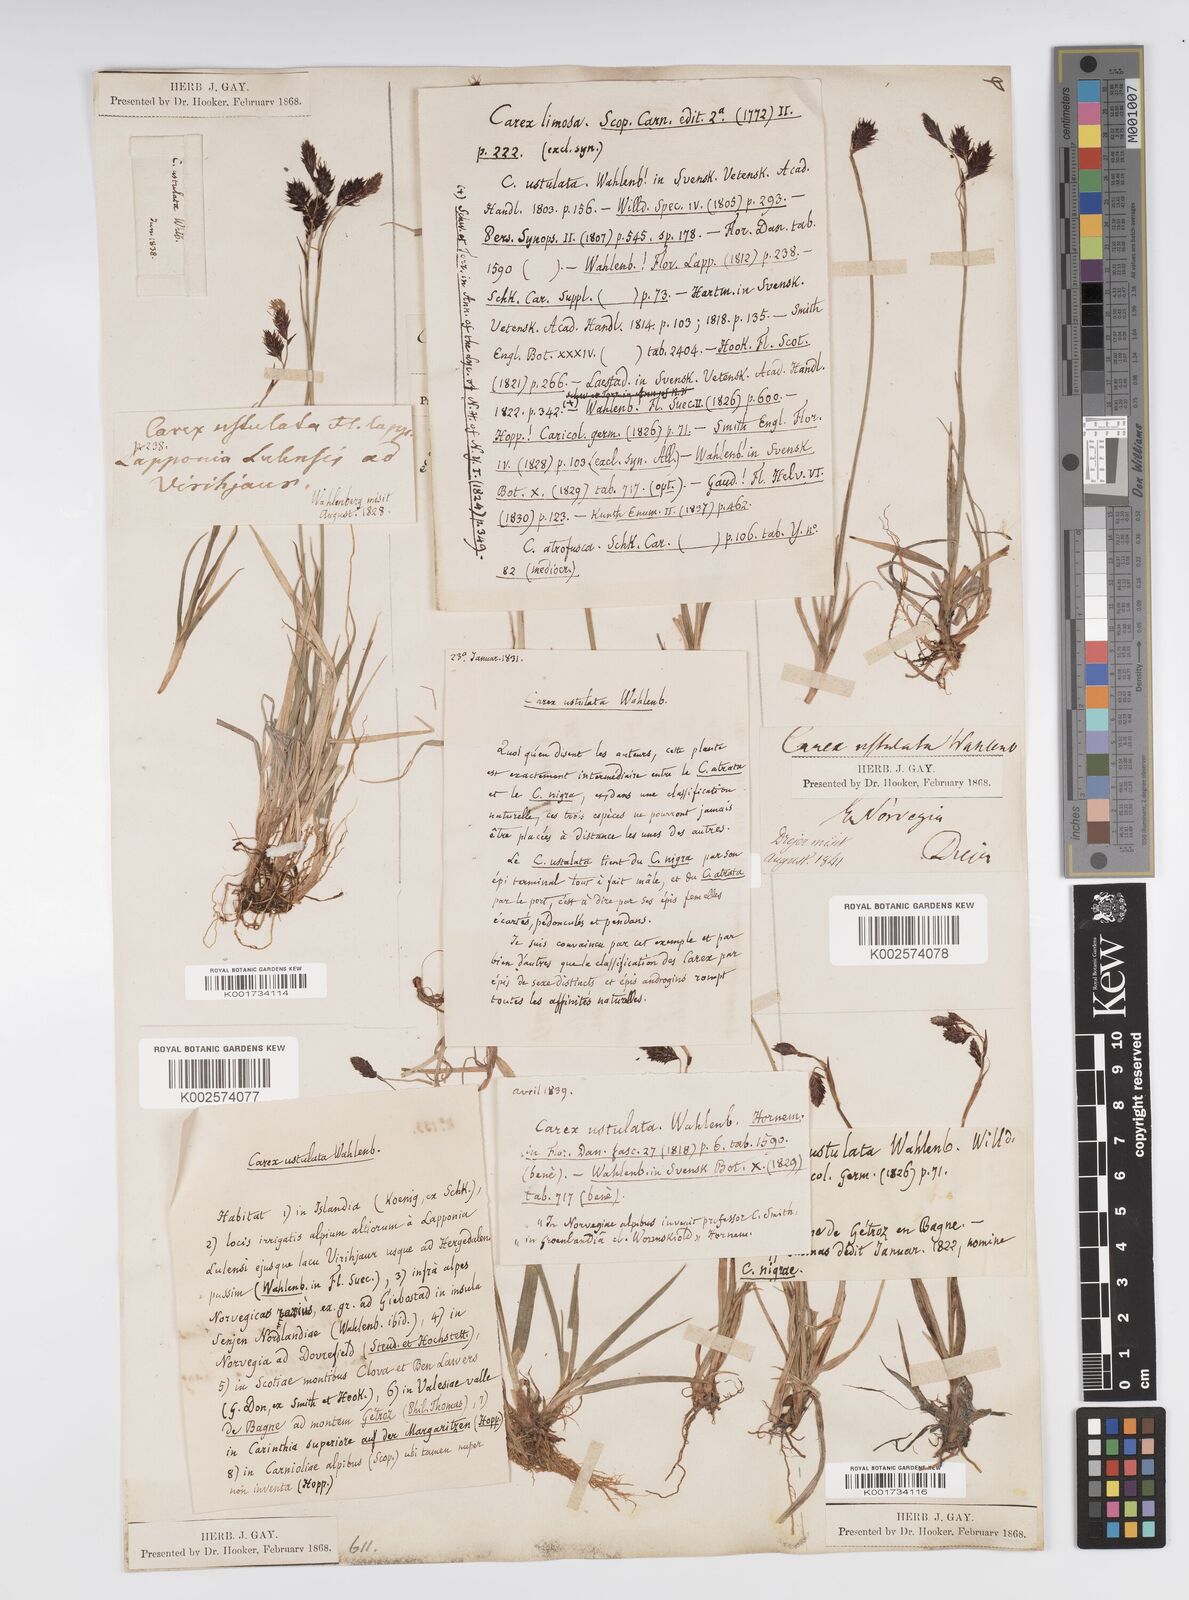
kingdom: Plantae
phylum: Tracheophyta
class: Liliopsida
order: Poales
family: Cyperaceae
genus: Carex
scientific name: Carex atrofusca
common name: Scorched alpine-sedge
